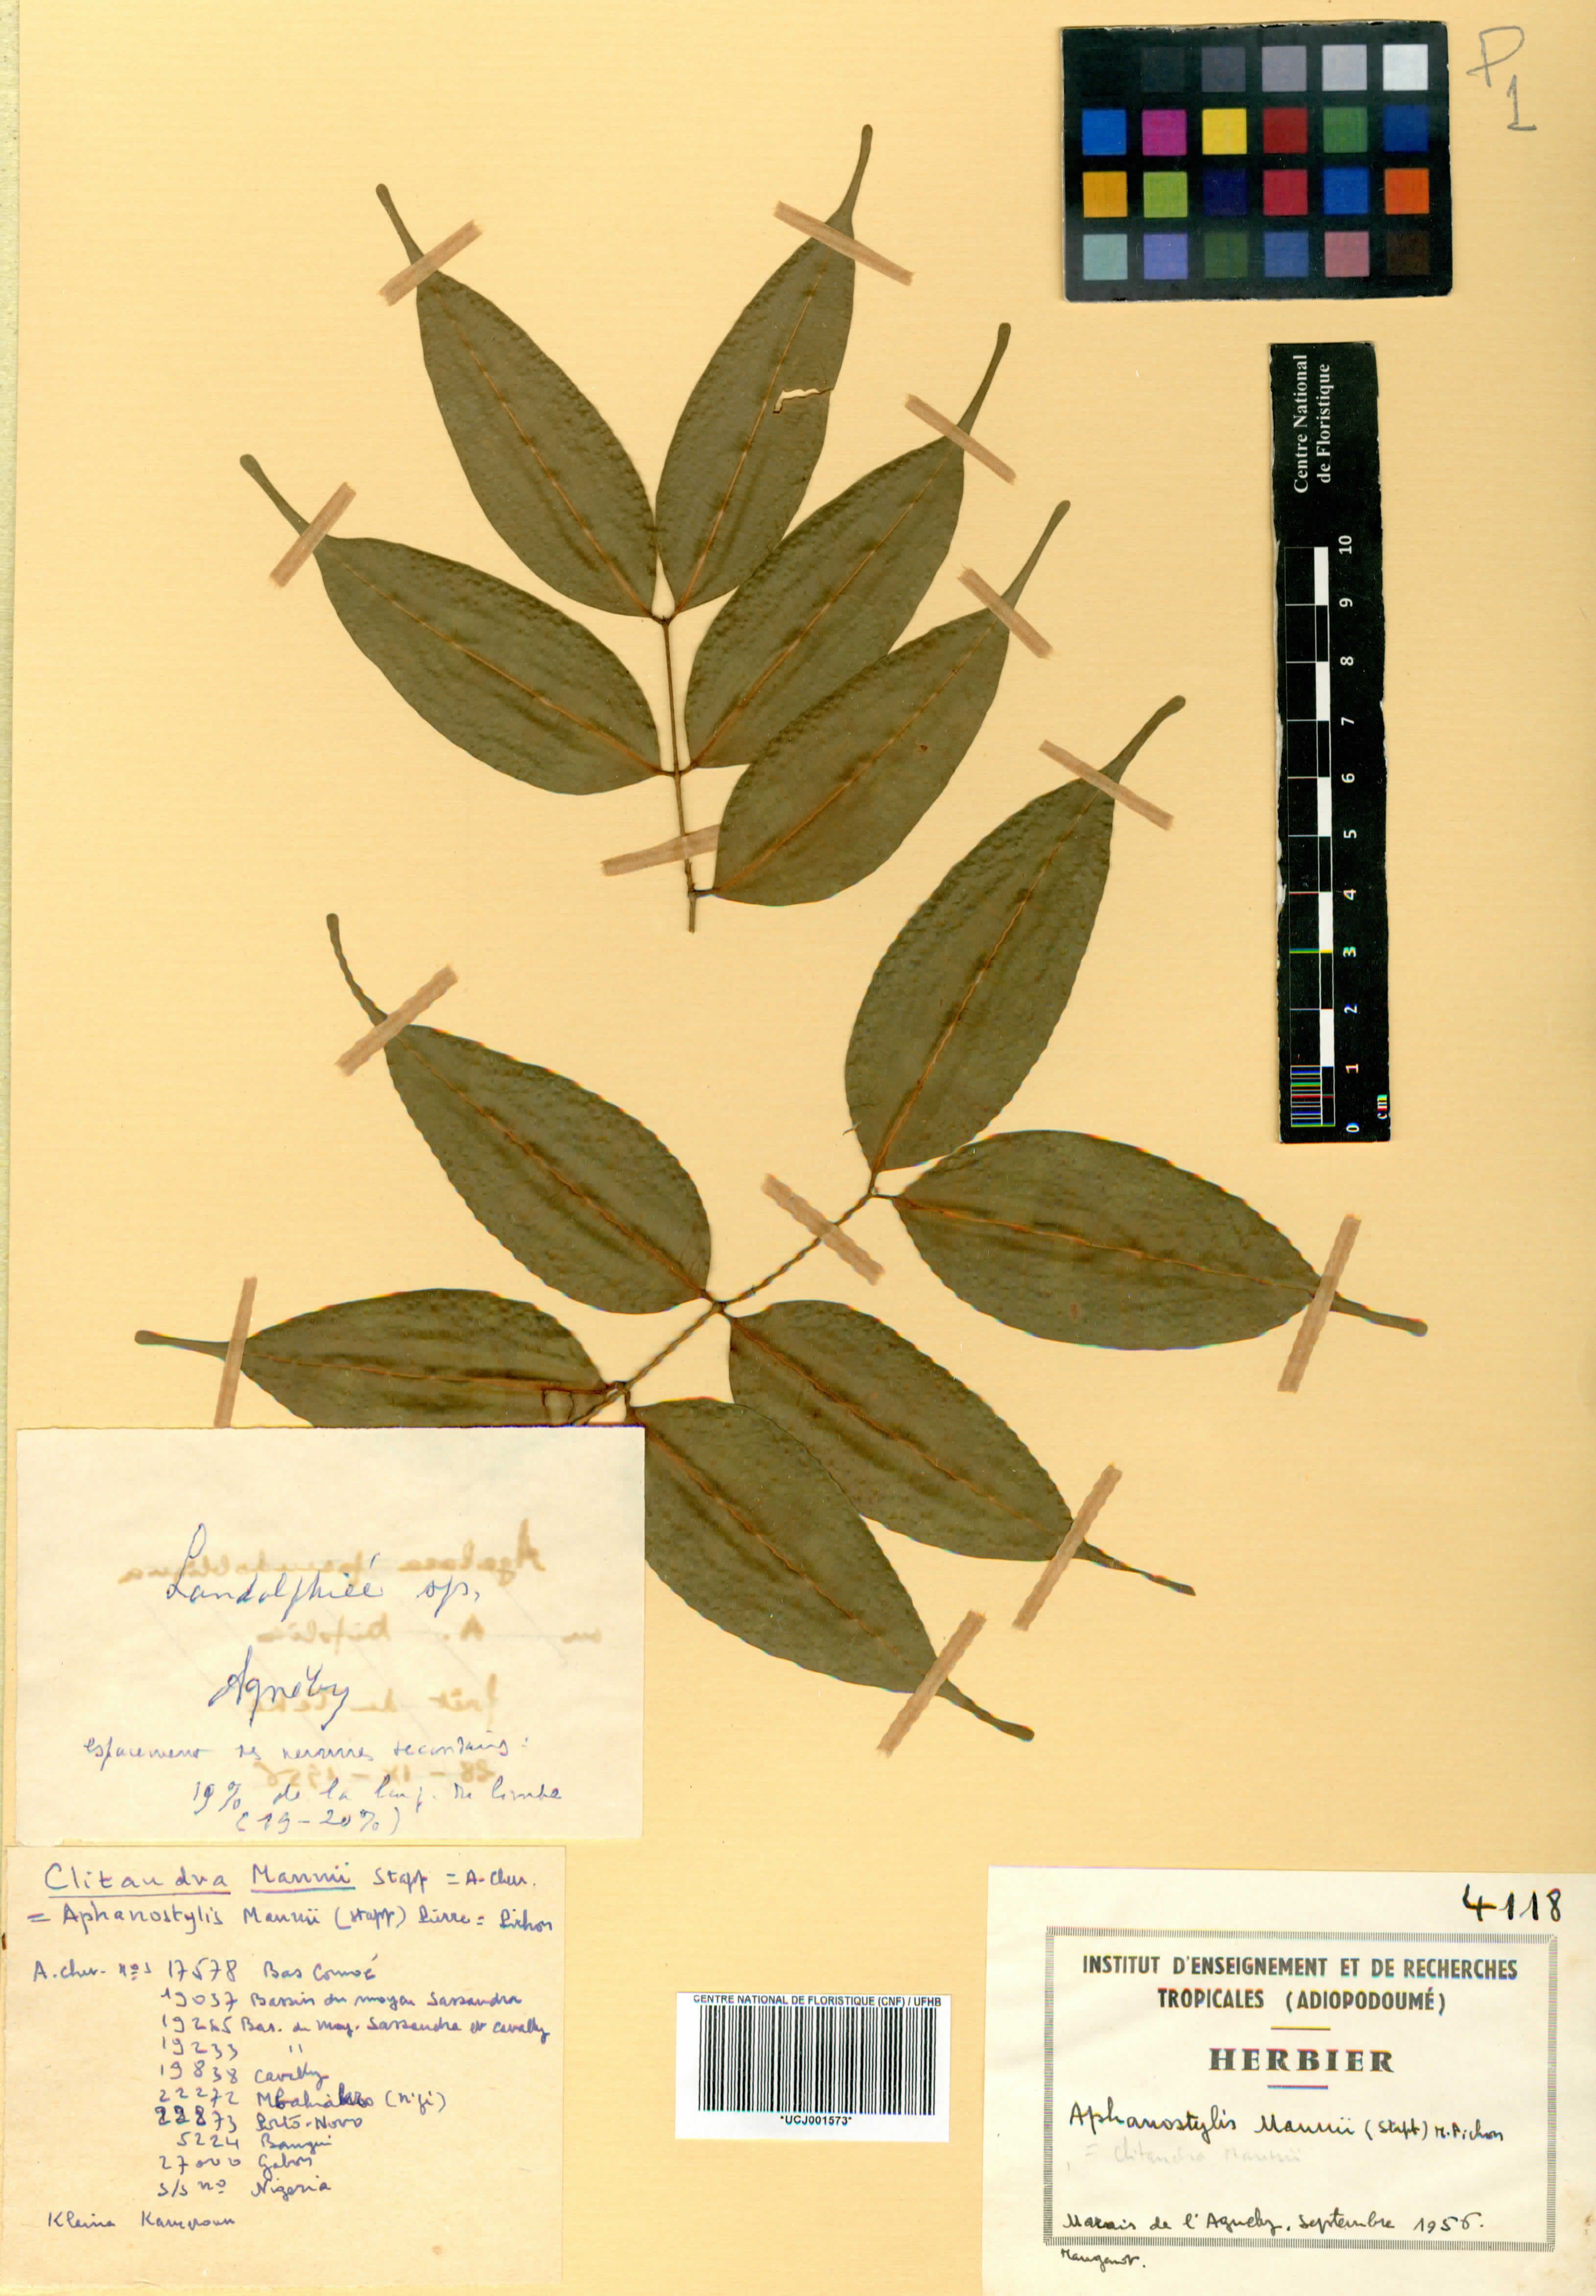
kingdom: Plantae
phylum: Tracheophyta
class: Magnoliopsida
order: Gentianales
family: Apocynaceae
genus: Landolphia
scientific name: Landolphia incerta
